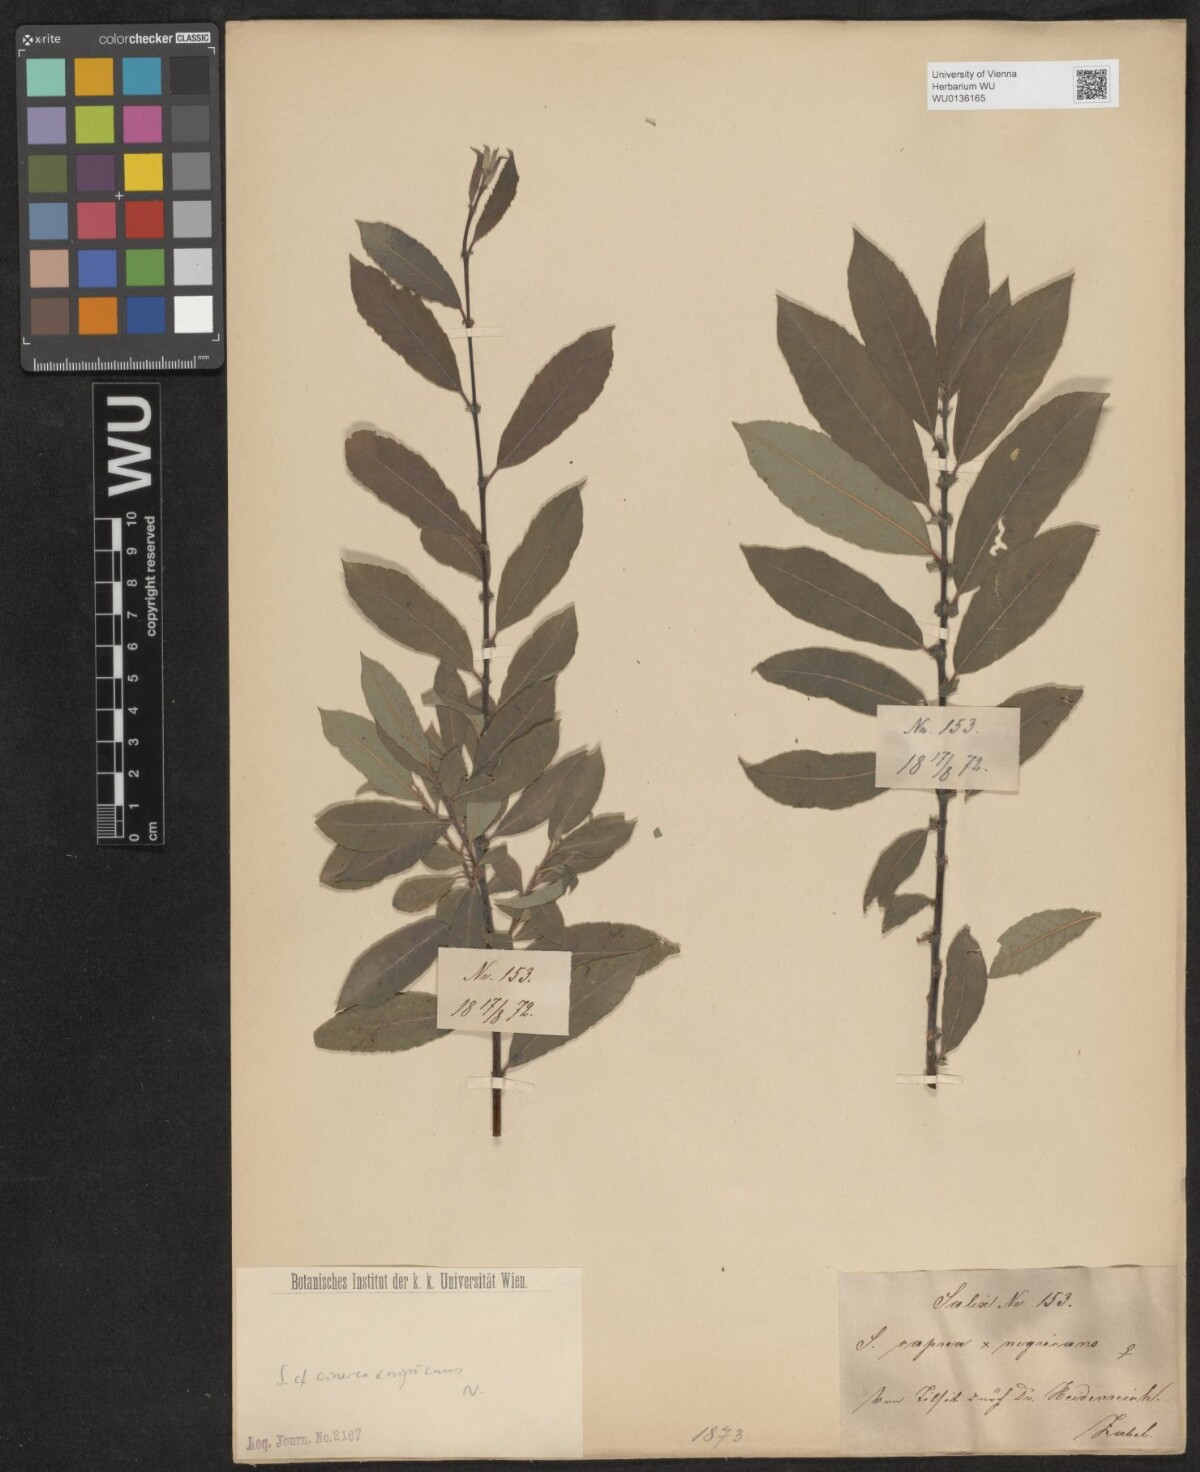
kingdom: Plantae
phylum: Tracheophyta
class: Magnoliopsida
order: Malpighiales
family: Salicaceae
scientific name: Salicaceae
